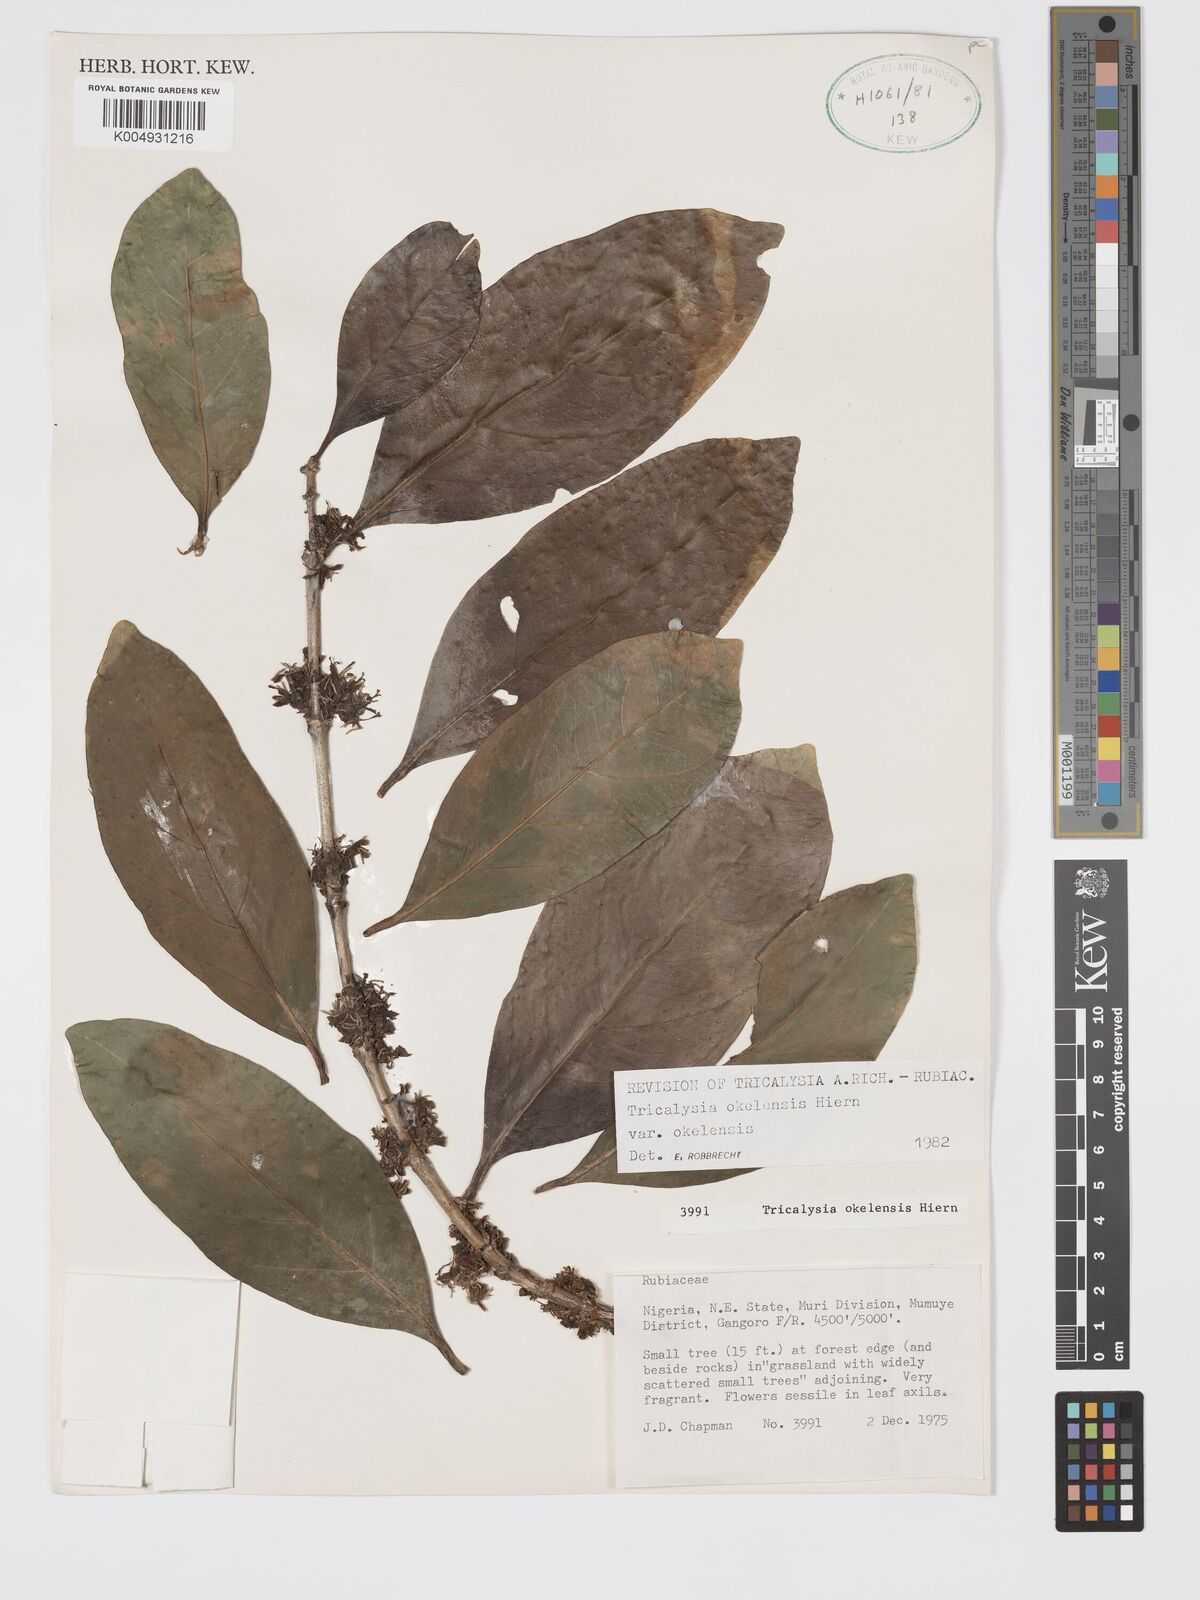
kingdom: Plantae
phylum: Tracheophyta
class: Magnoliopsida
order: Gentianales
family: Rubiaceae
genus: Tricalysia
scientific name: Tricalysia okelensis
